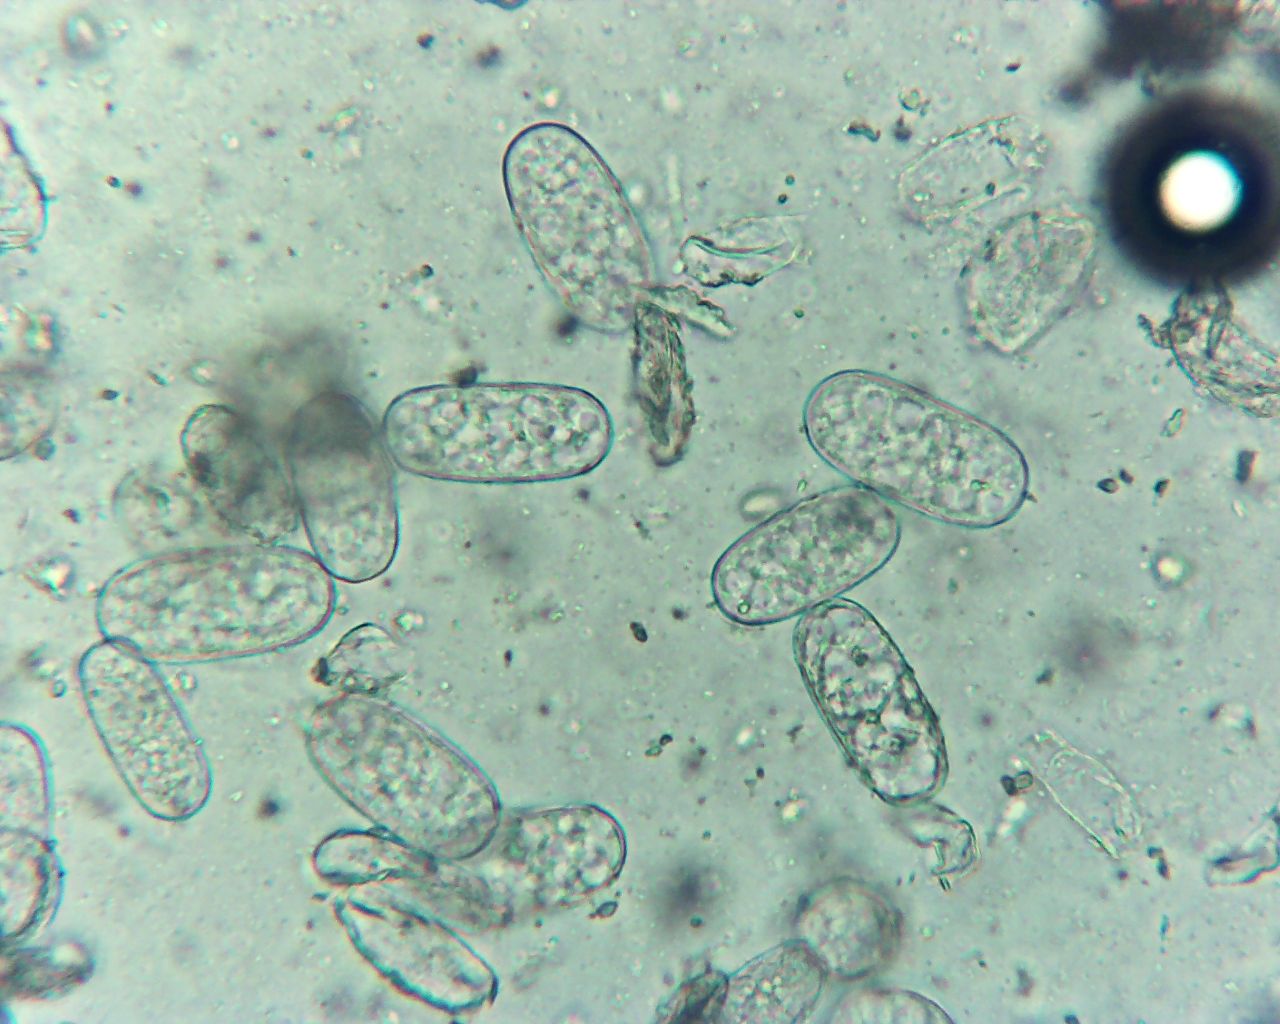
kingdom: Fungi
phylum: Ascomycota
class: Leotiomycetes
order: Helotiales
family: Erysiphaceae
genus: Erysiphe
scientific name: Erysiphe cruciferarum
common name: korsblomst-meldug
